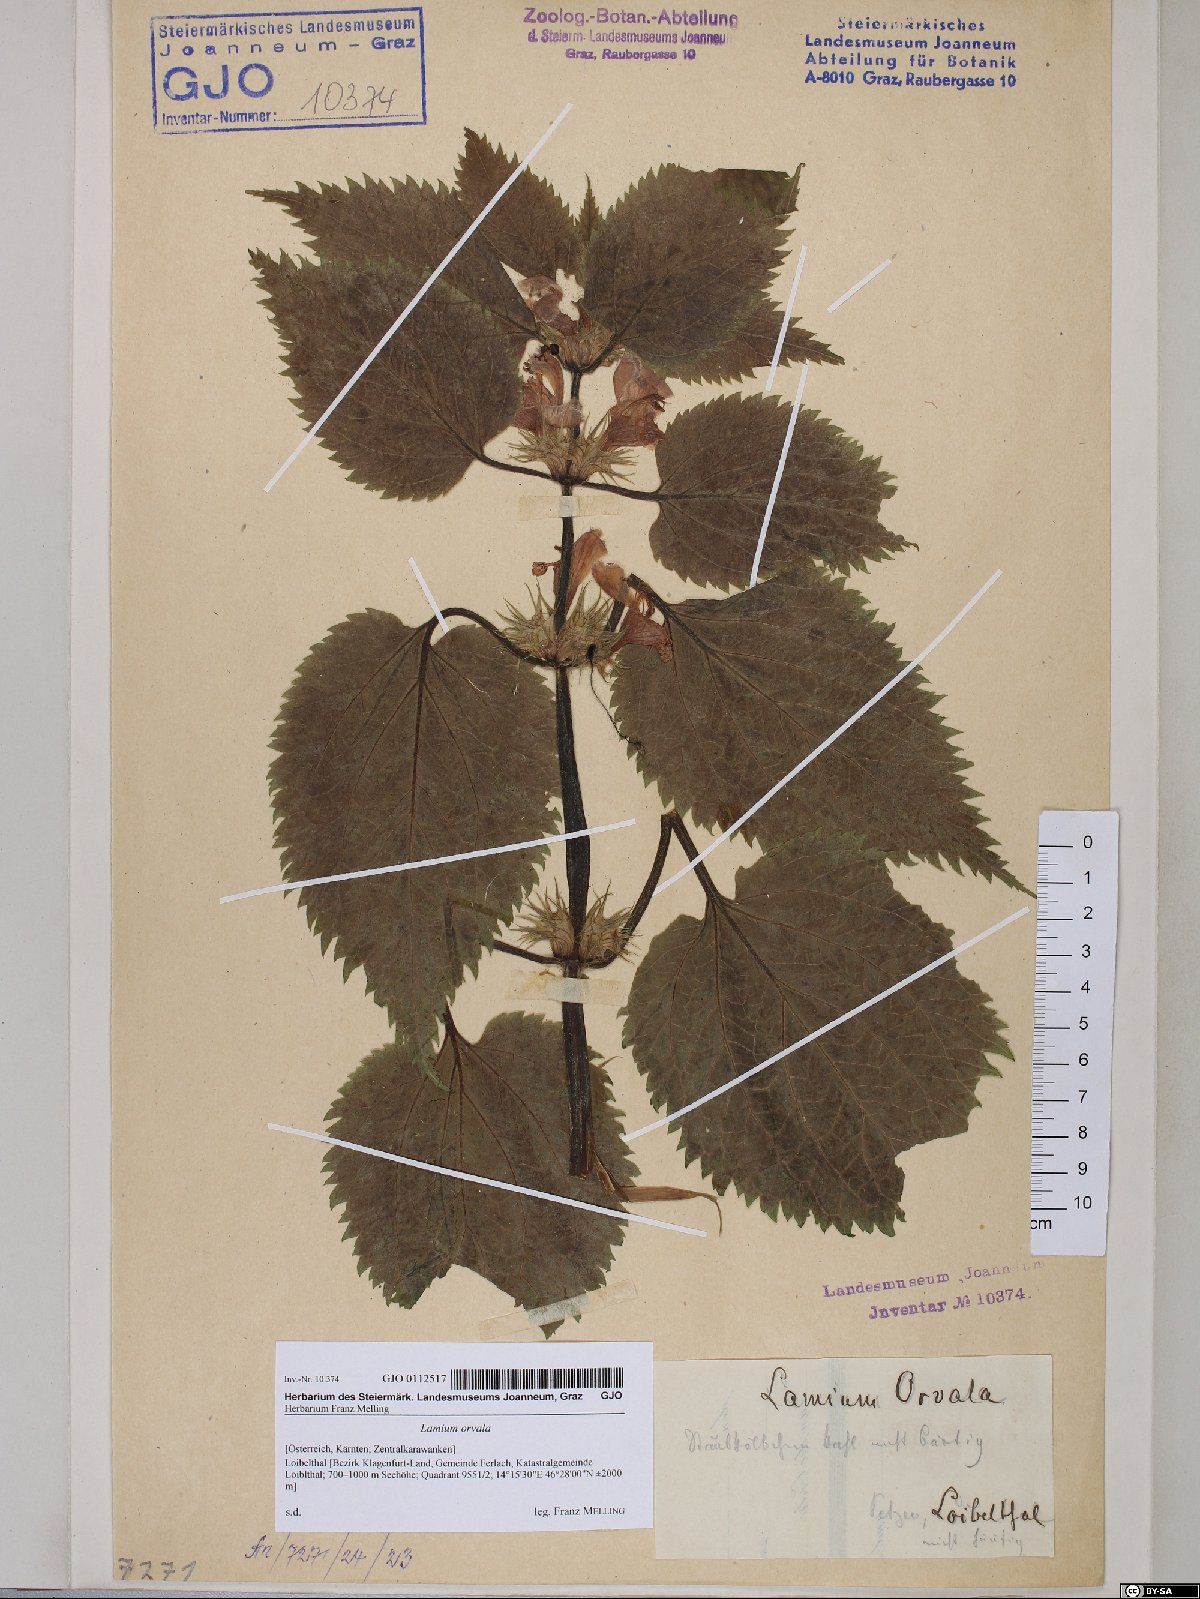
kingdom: Plantae
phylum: Tracheophyta
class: Magnoliopsida
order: Lamiales
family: Lamiaceae
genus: Lamium
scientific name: Lamium orvala
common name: Balm-leaved archangel
